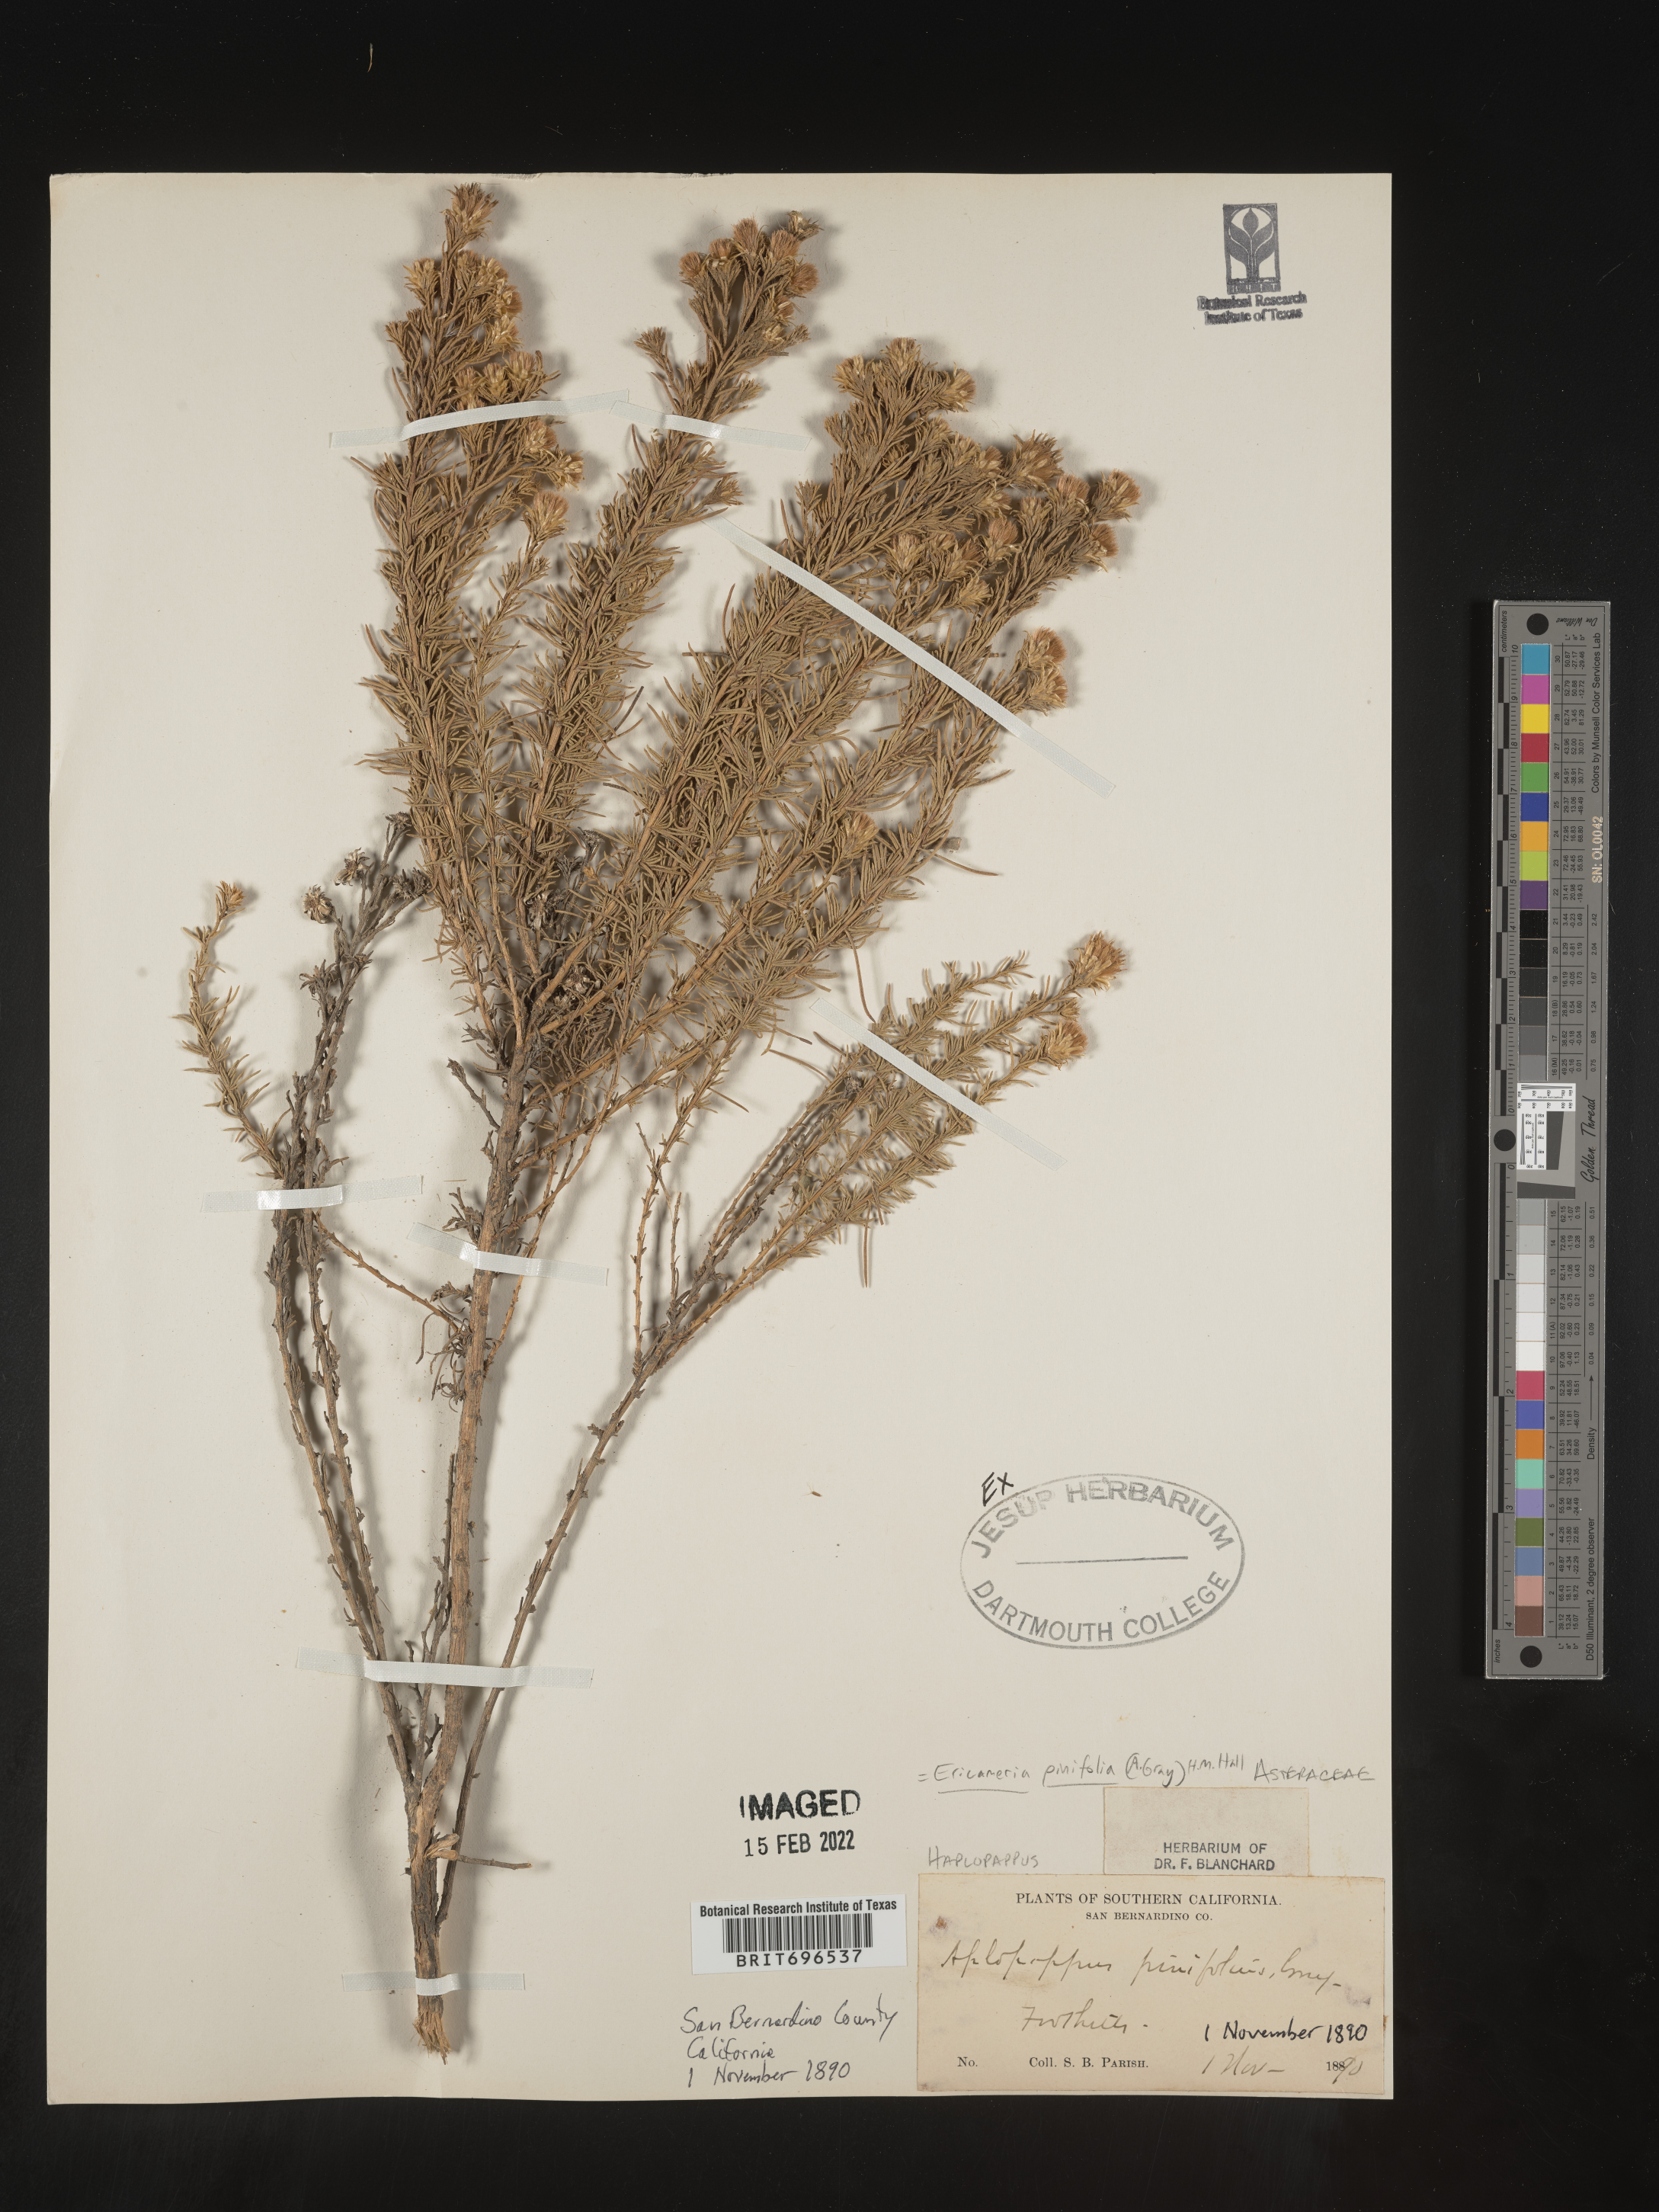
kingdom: Plantae
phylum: Tracheophyta
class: Magnoliopsida
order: Asterales
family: Asteraceae
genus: Ericameria
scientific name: Ericameria pinifolia
